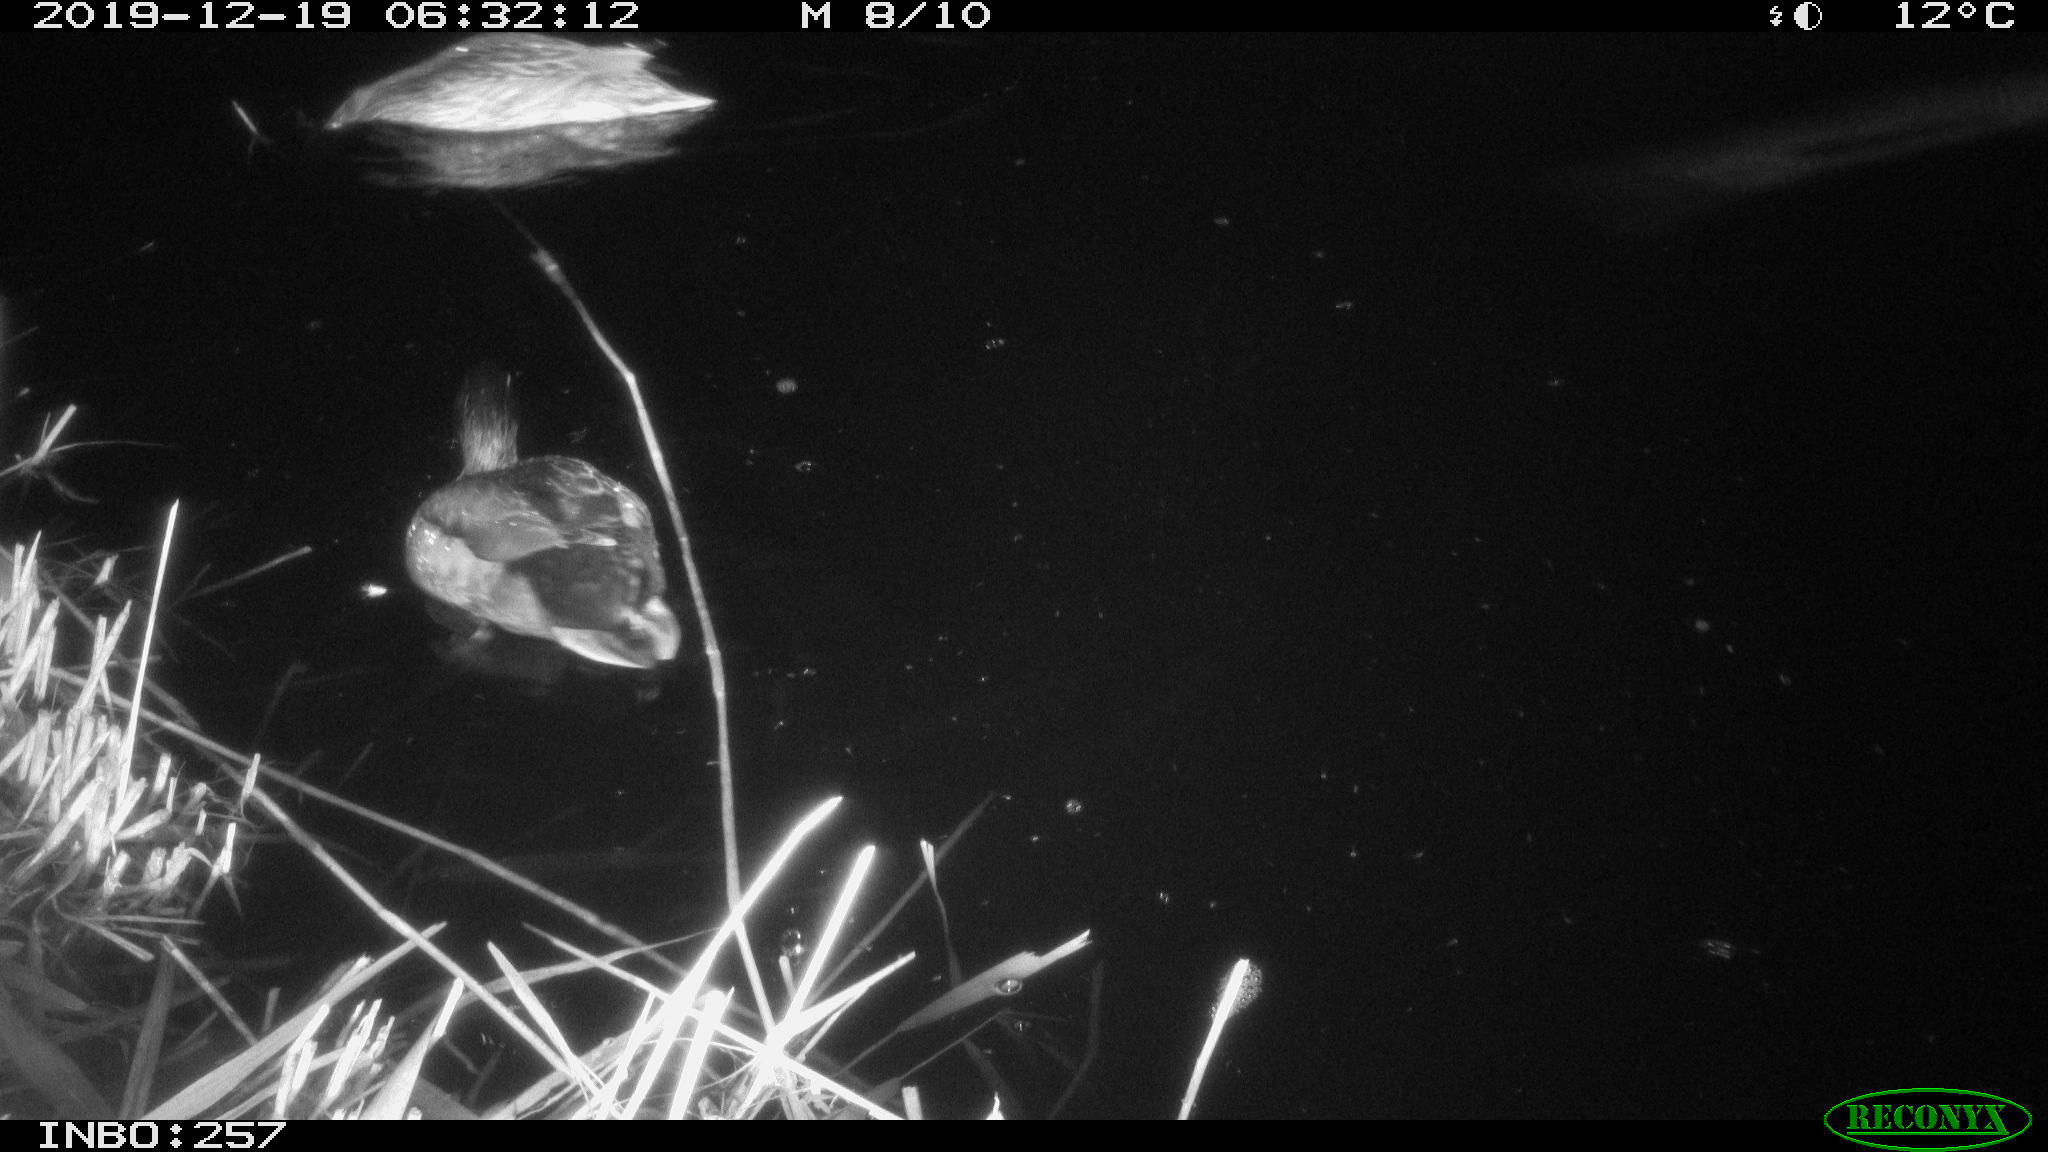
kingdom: Animalia
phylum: Chordata
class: Aves
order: Anseriformes
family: Anatidae
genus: Anas
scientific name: Anas platyrhynchos
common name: Mallard
